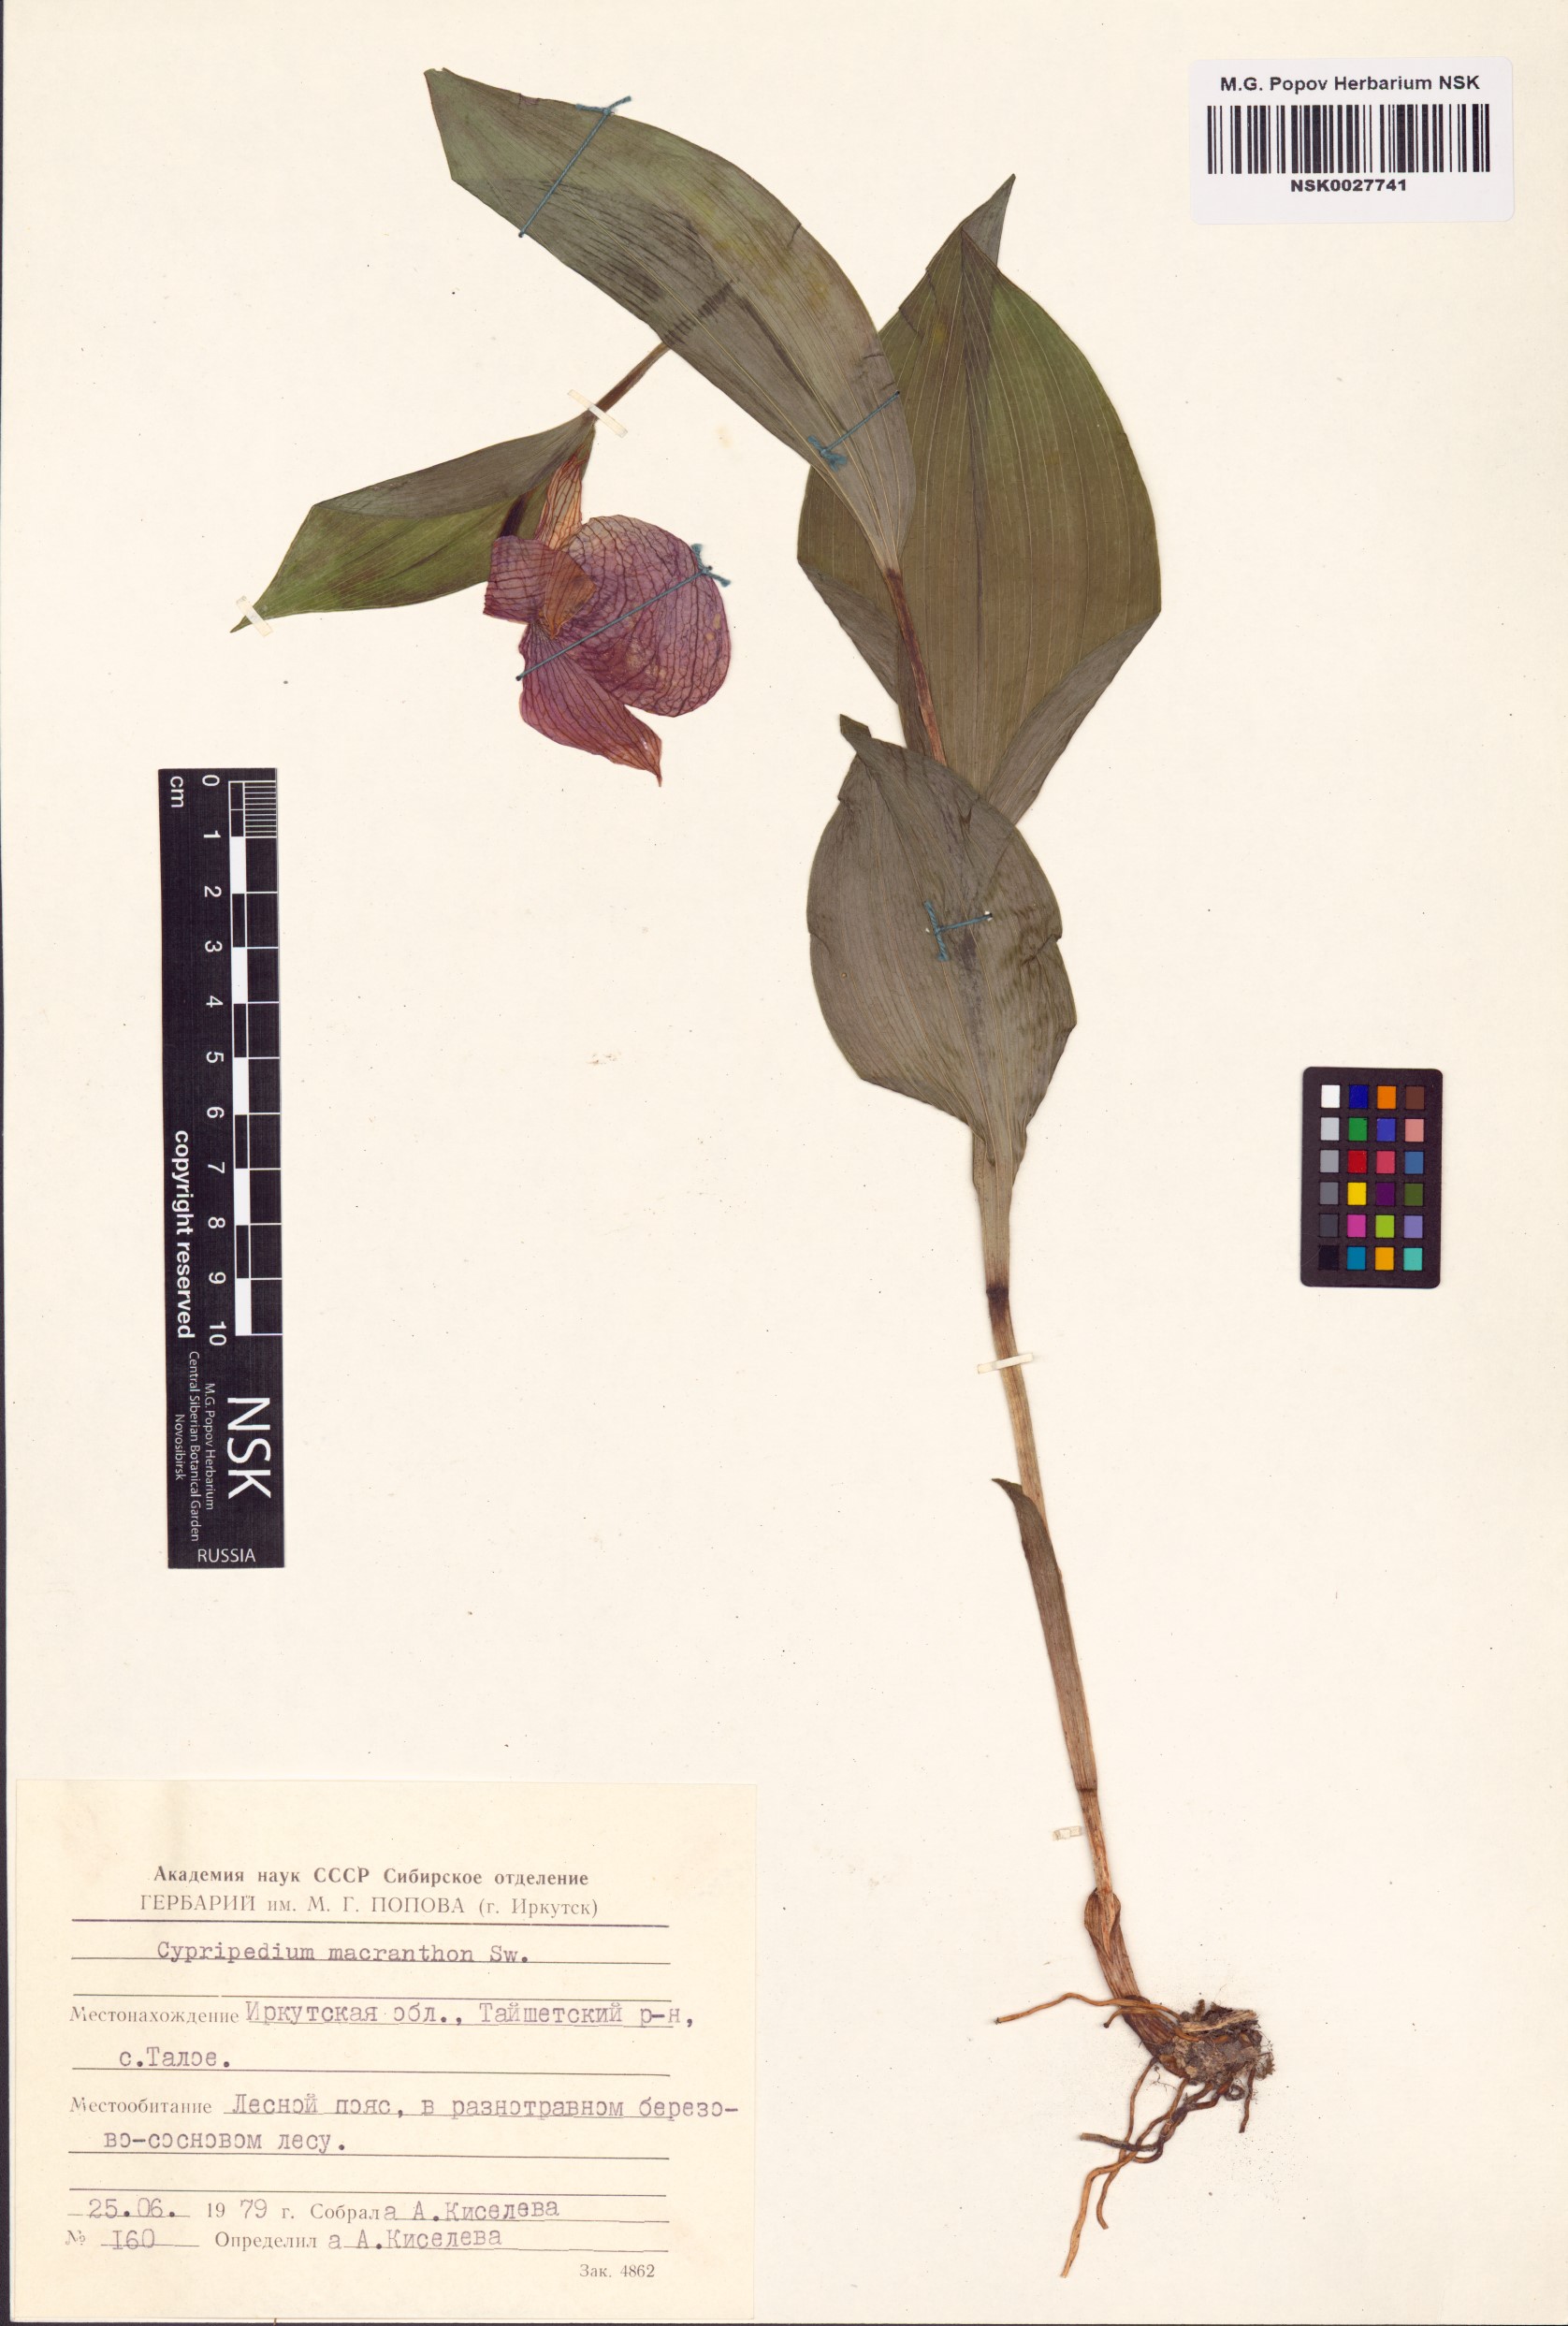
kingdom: Plantae
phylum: Tracheophyta
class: Liliopsida
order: Asparagales
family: Orchidaceae
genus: Cypripedium
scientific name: Cypripedium macranthos
